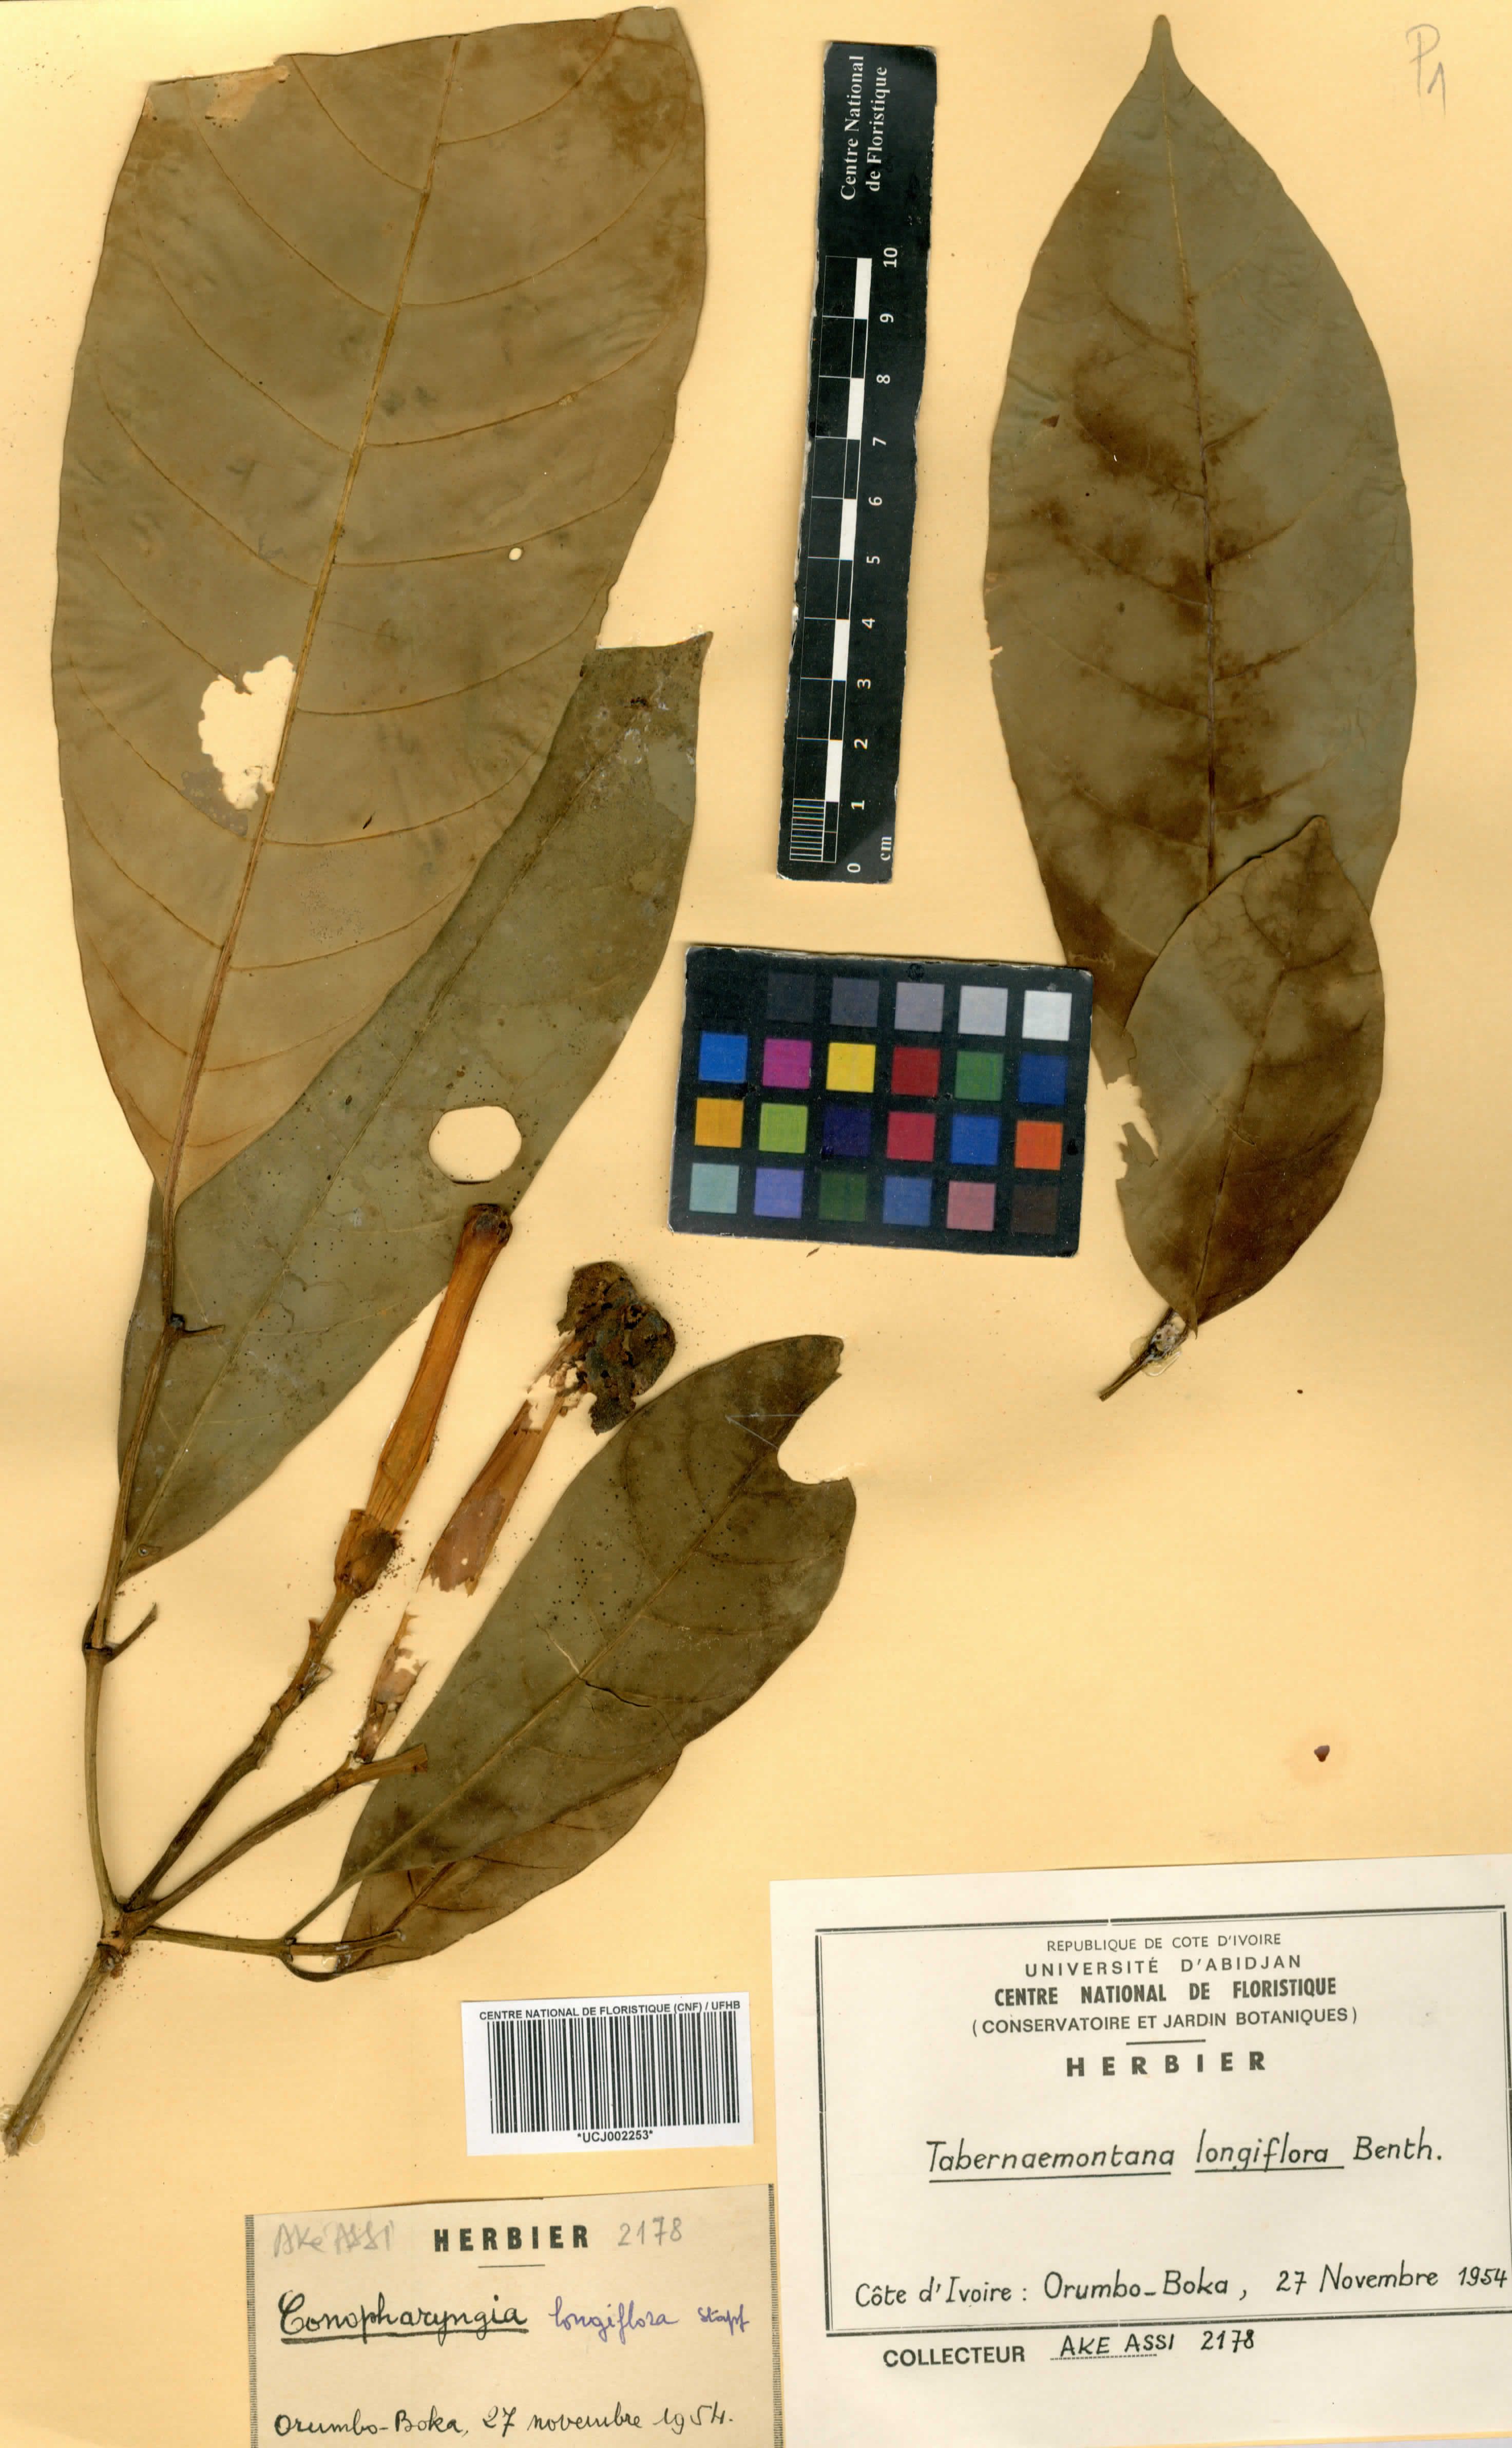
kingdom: Plantae
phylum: Tracheophyta
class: Magnoliopsida
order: Gentianales
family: Apocynaceae
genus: Tabernaemontana
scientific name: Tabernaemontana africana
